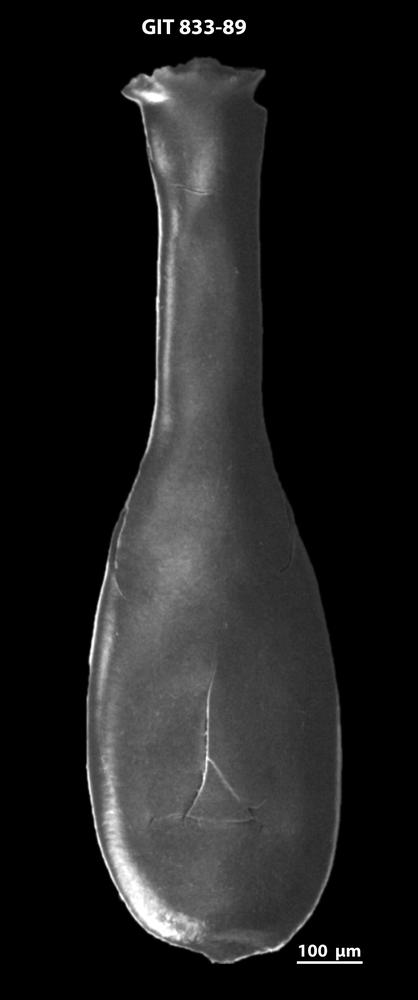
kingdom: Animalia
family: Lagenochitinidae
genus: Lagenochitina
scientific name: Lagenochitina megaesthonica
